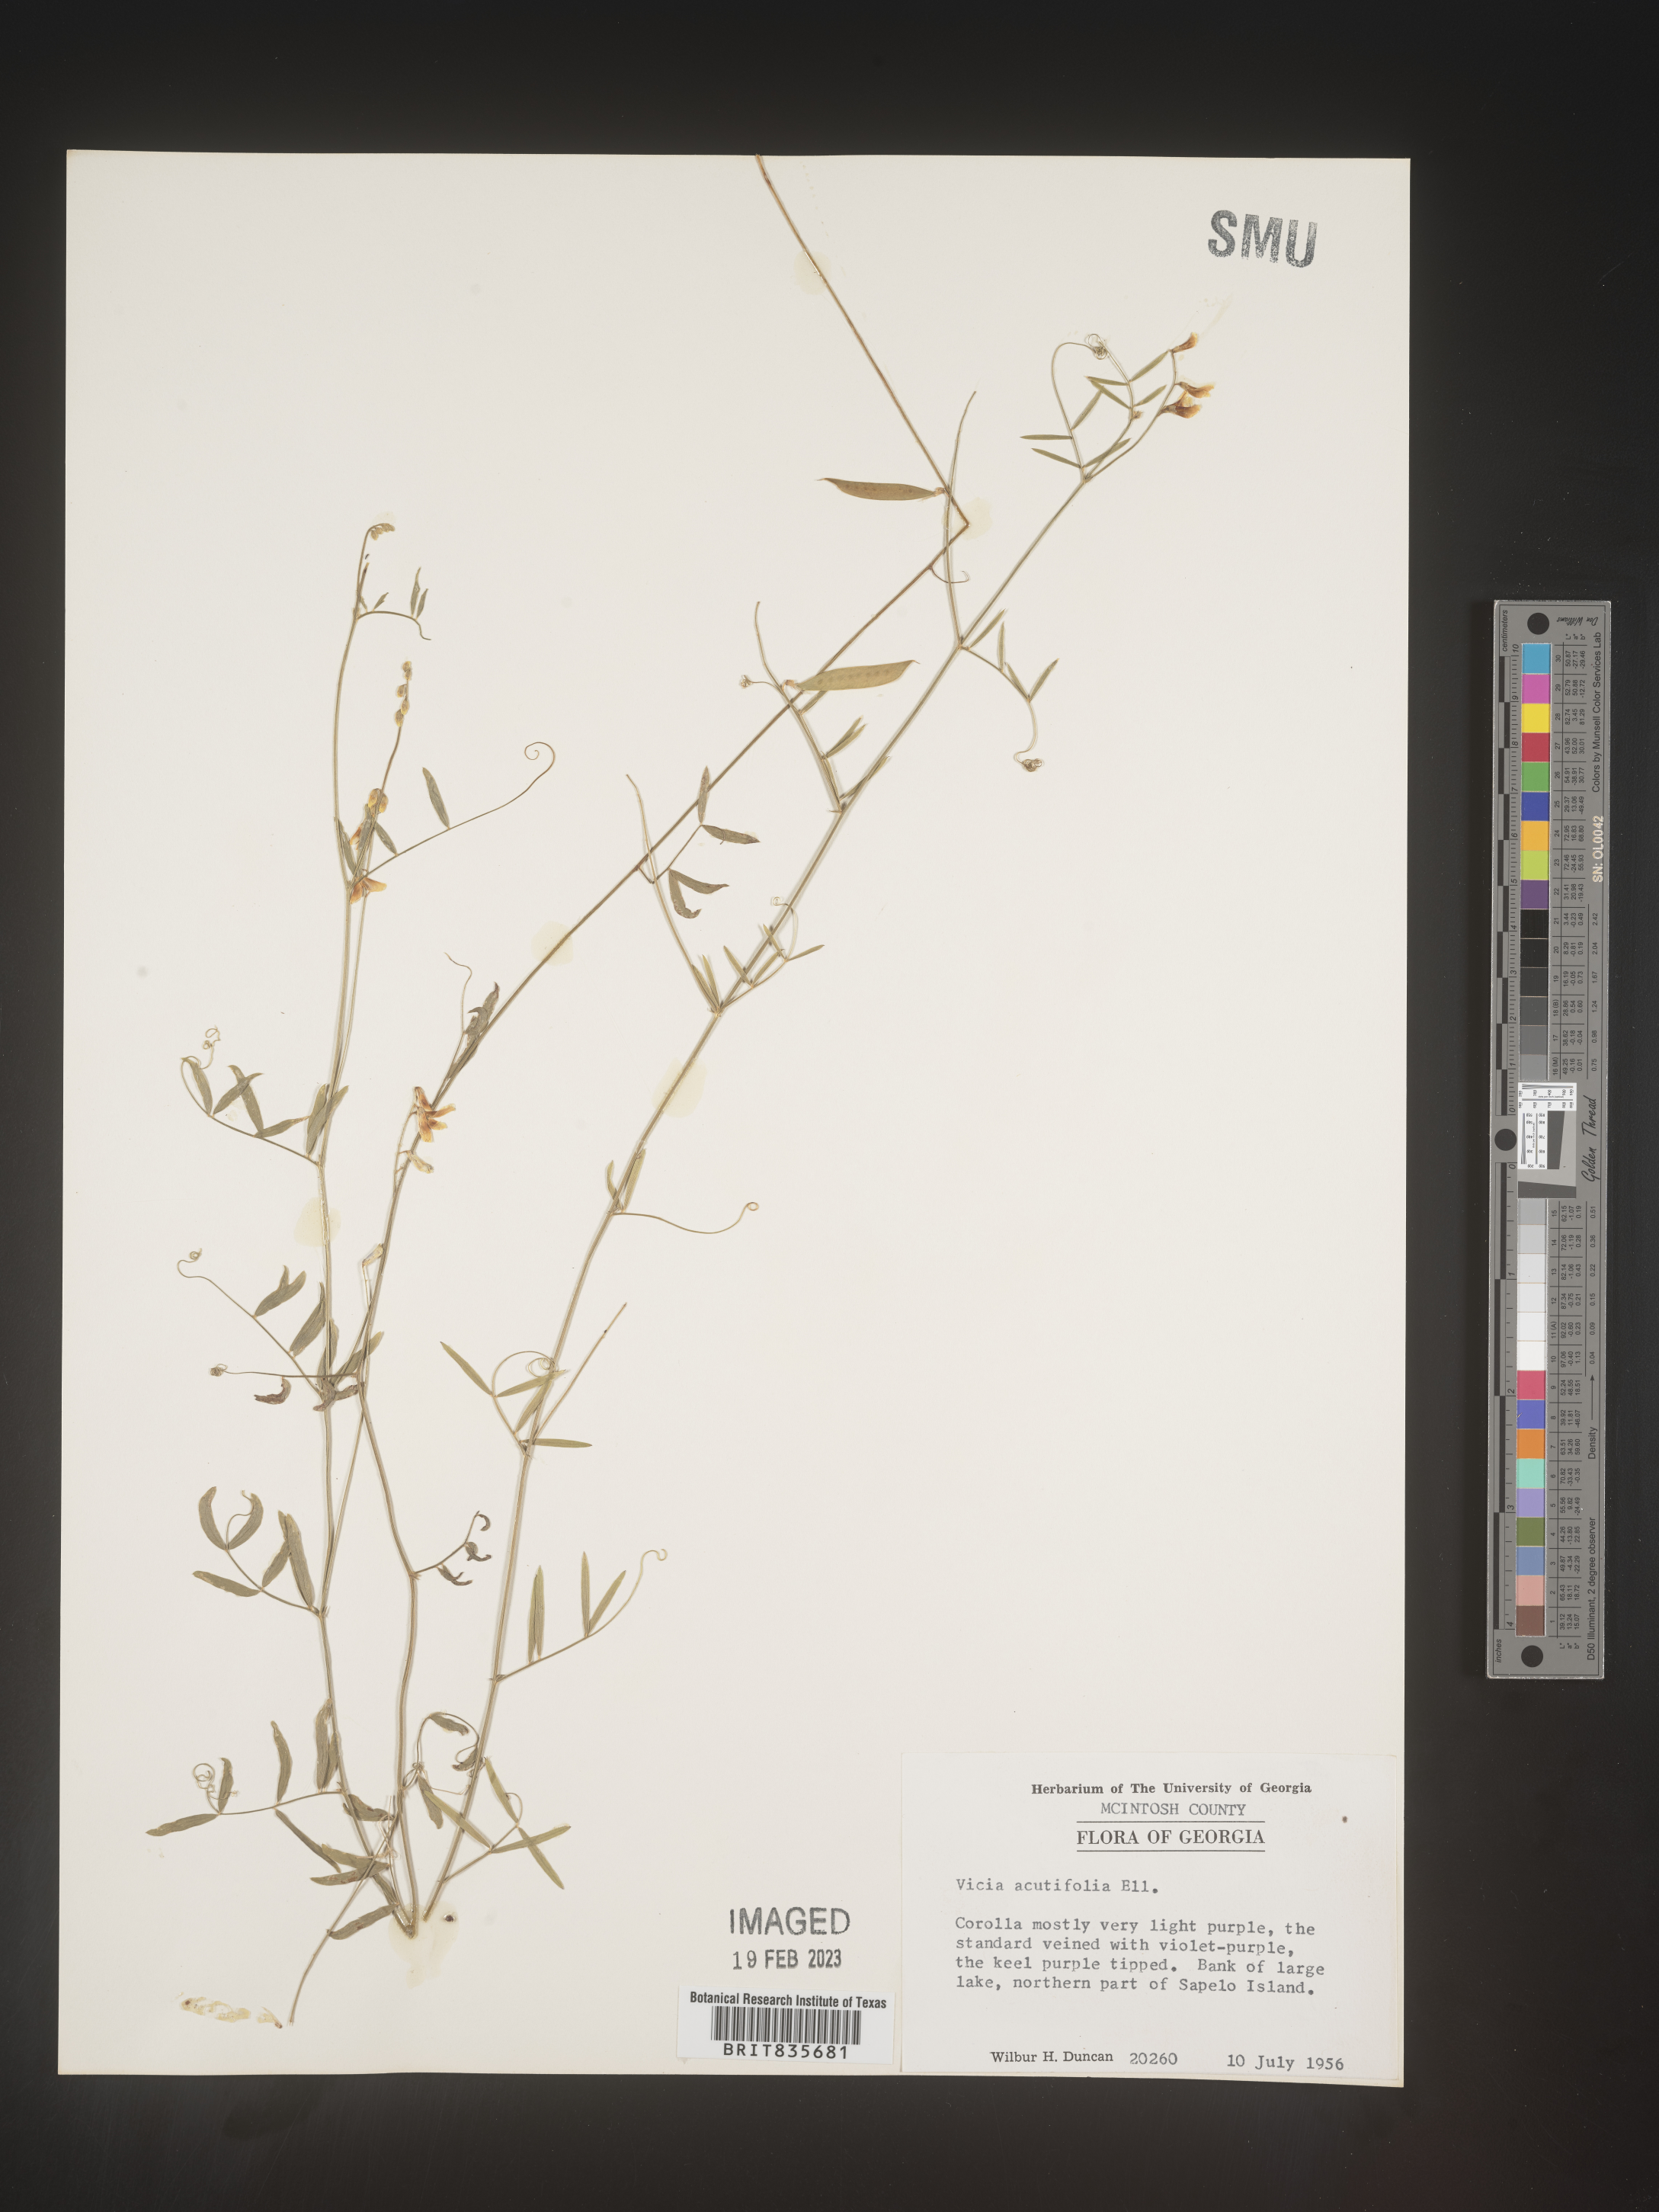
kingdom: Plantae
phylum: Tracheophyta
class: Magnoliopsida
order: Fabales
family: Fabaceae
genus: Vicia
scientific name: Vicia acutifolia
